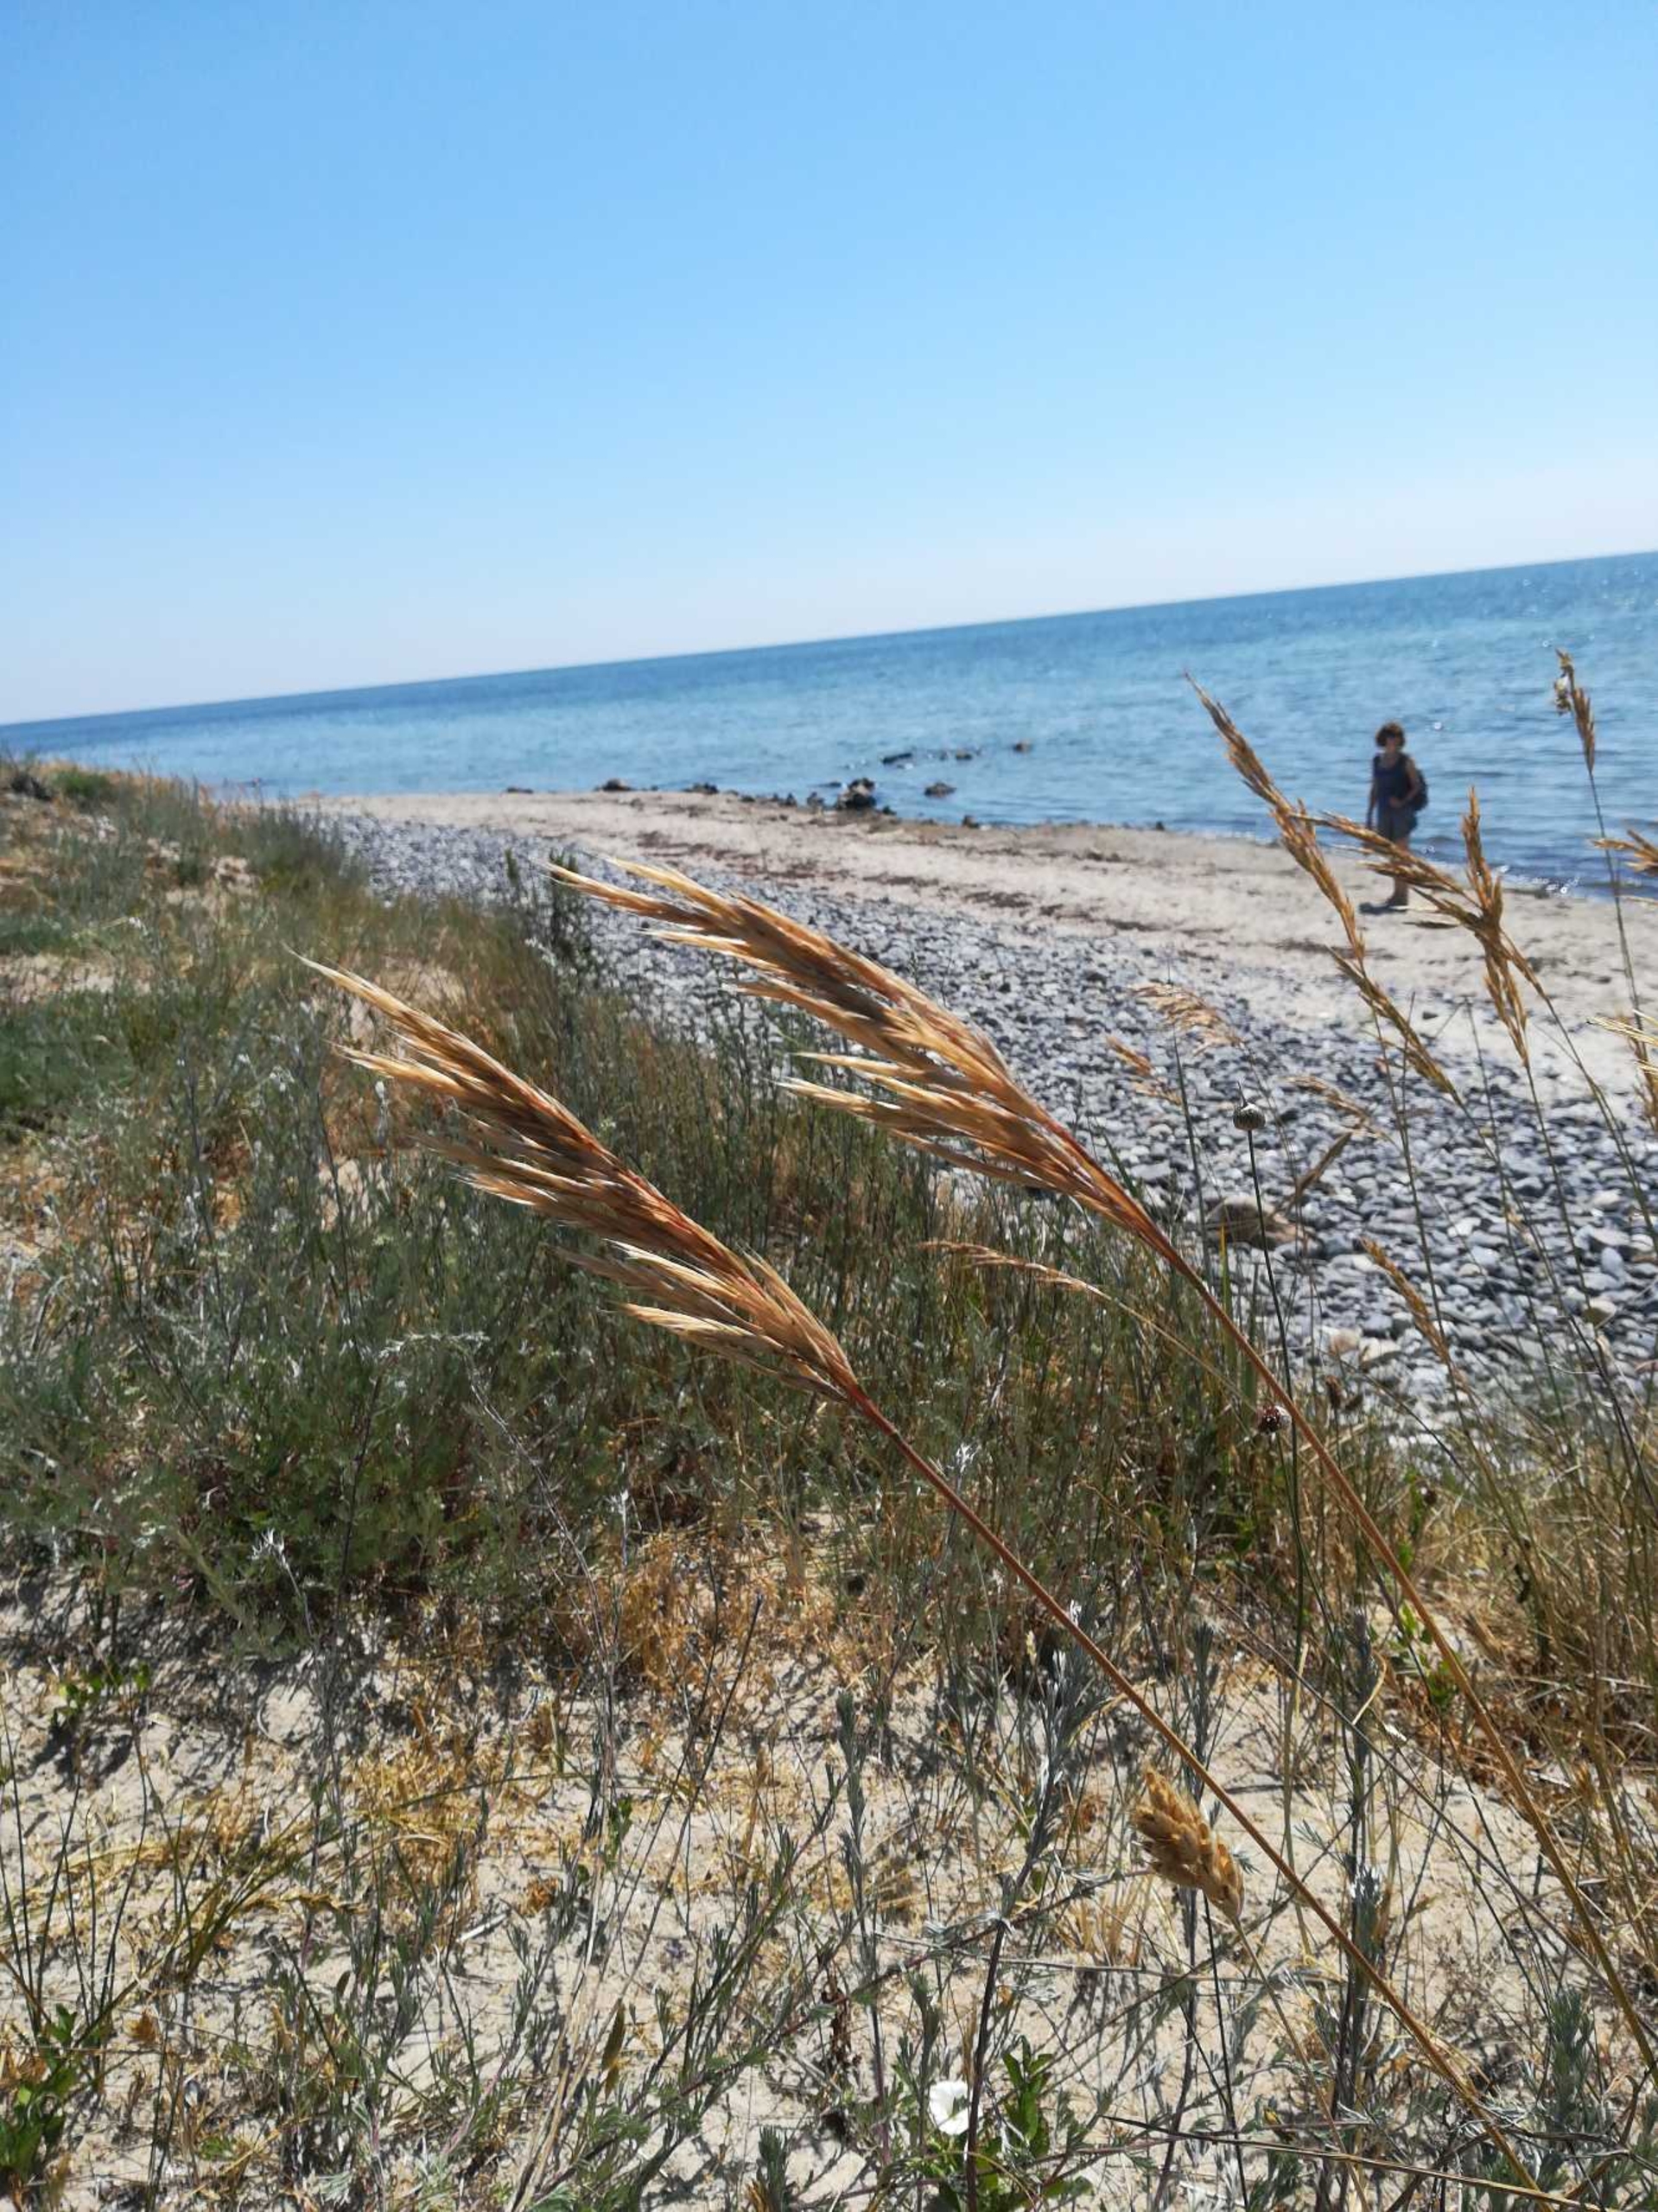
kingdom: Plantae
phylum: Tracheophyta
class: Liliopsida
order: Poales
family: Poaceae
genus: Bromus
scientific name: Bromus erectus
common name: Opret hejre
